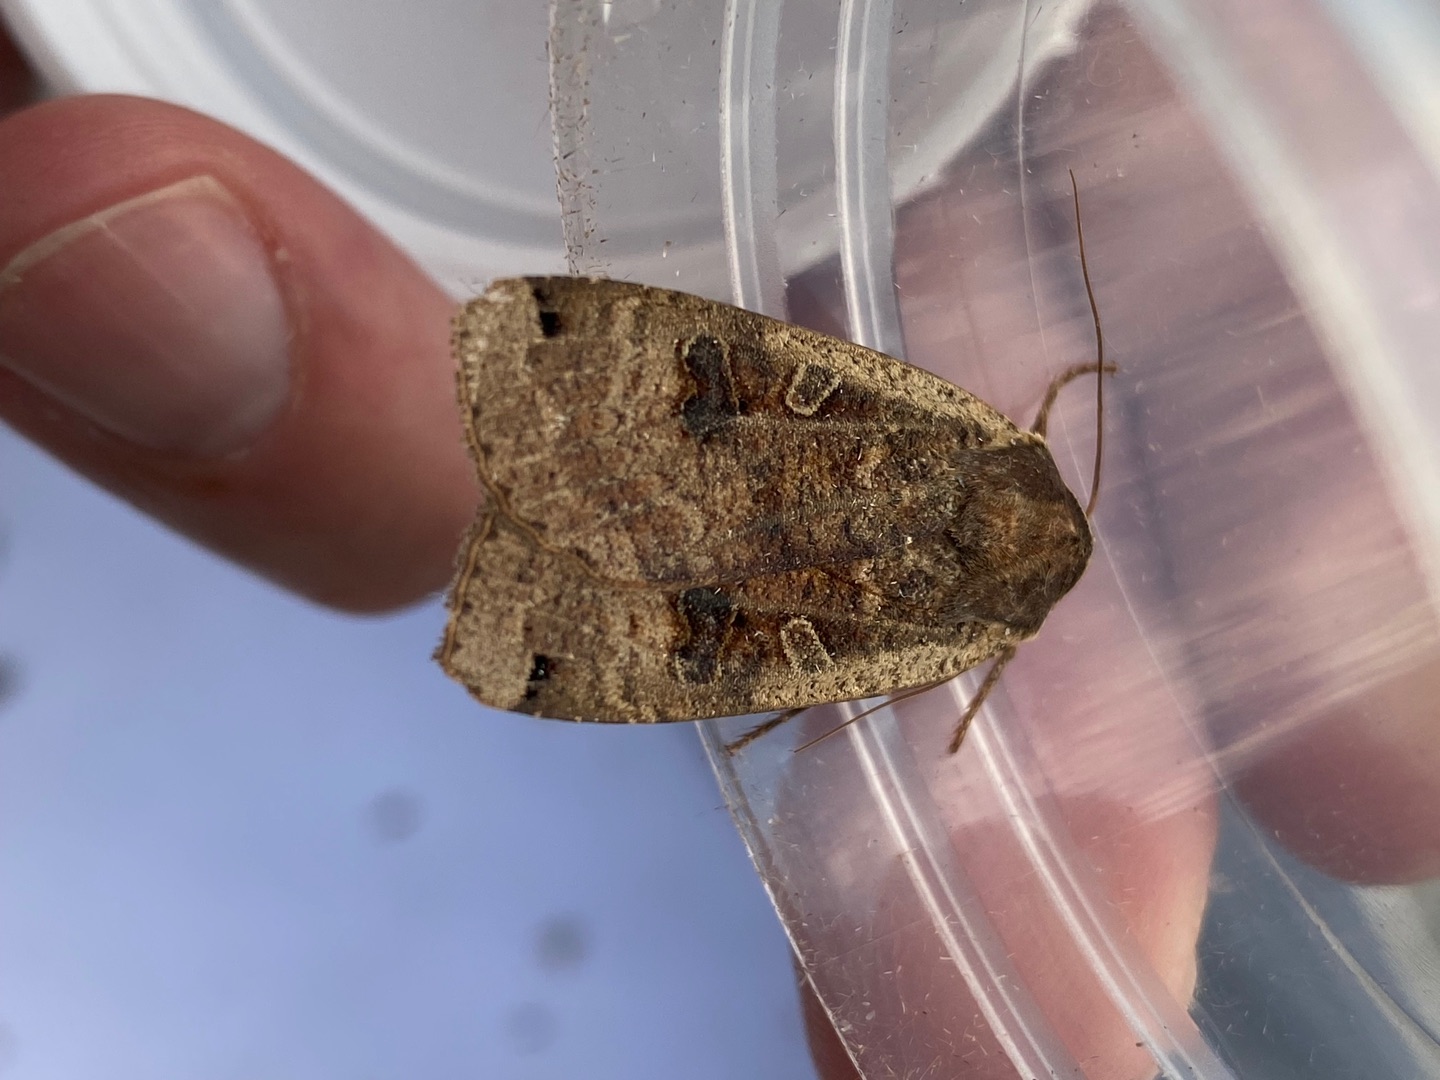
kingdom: Animalia
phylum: Arthropoda
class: Insecta
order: Lepidoptera
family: Noctuidae
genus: Noctua
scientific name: Noctua pronuba
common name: Stor smutugle
